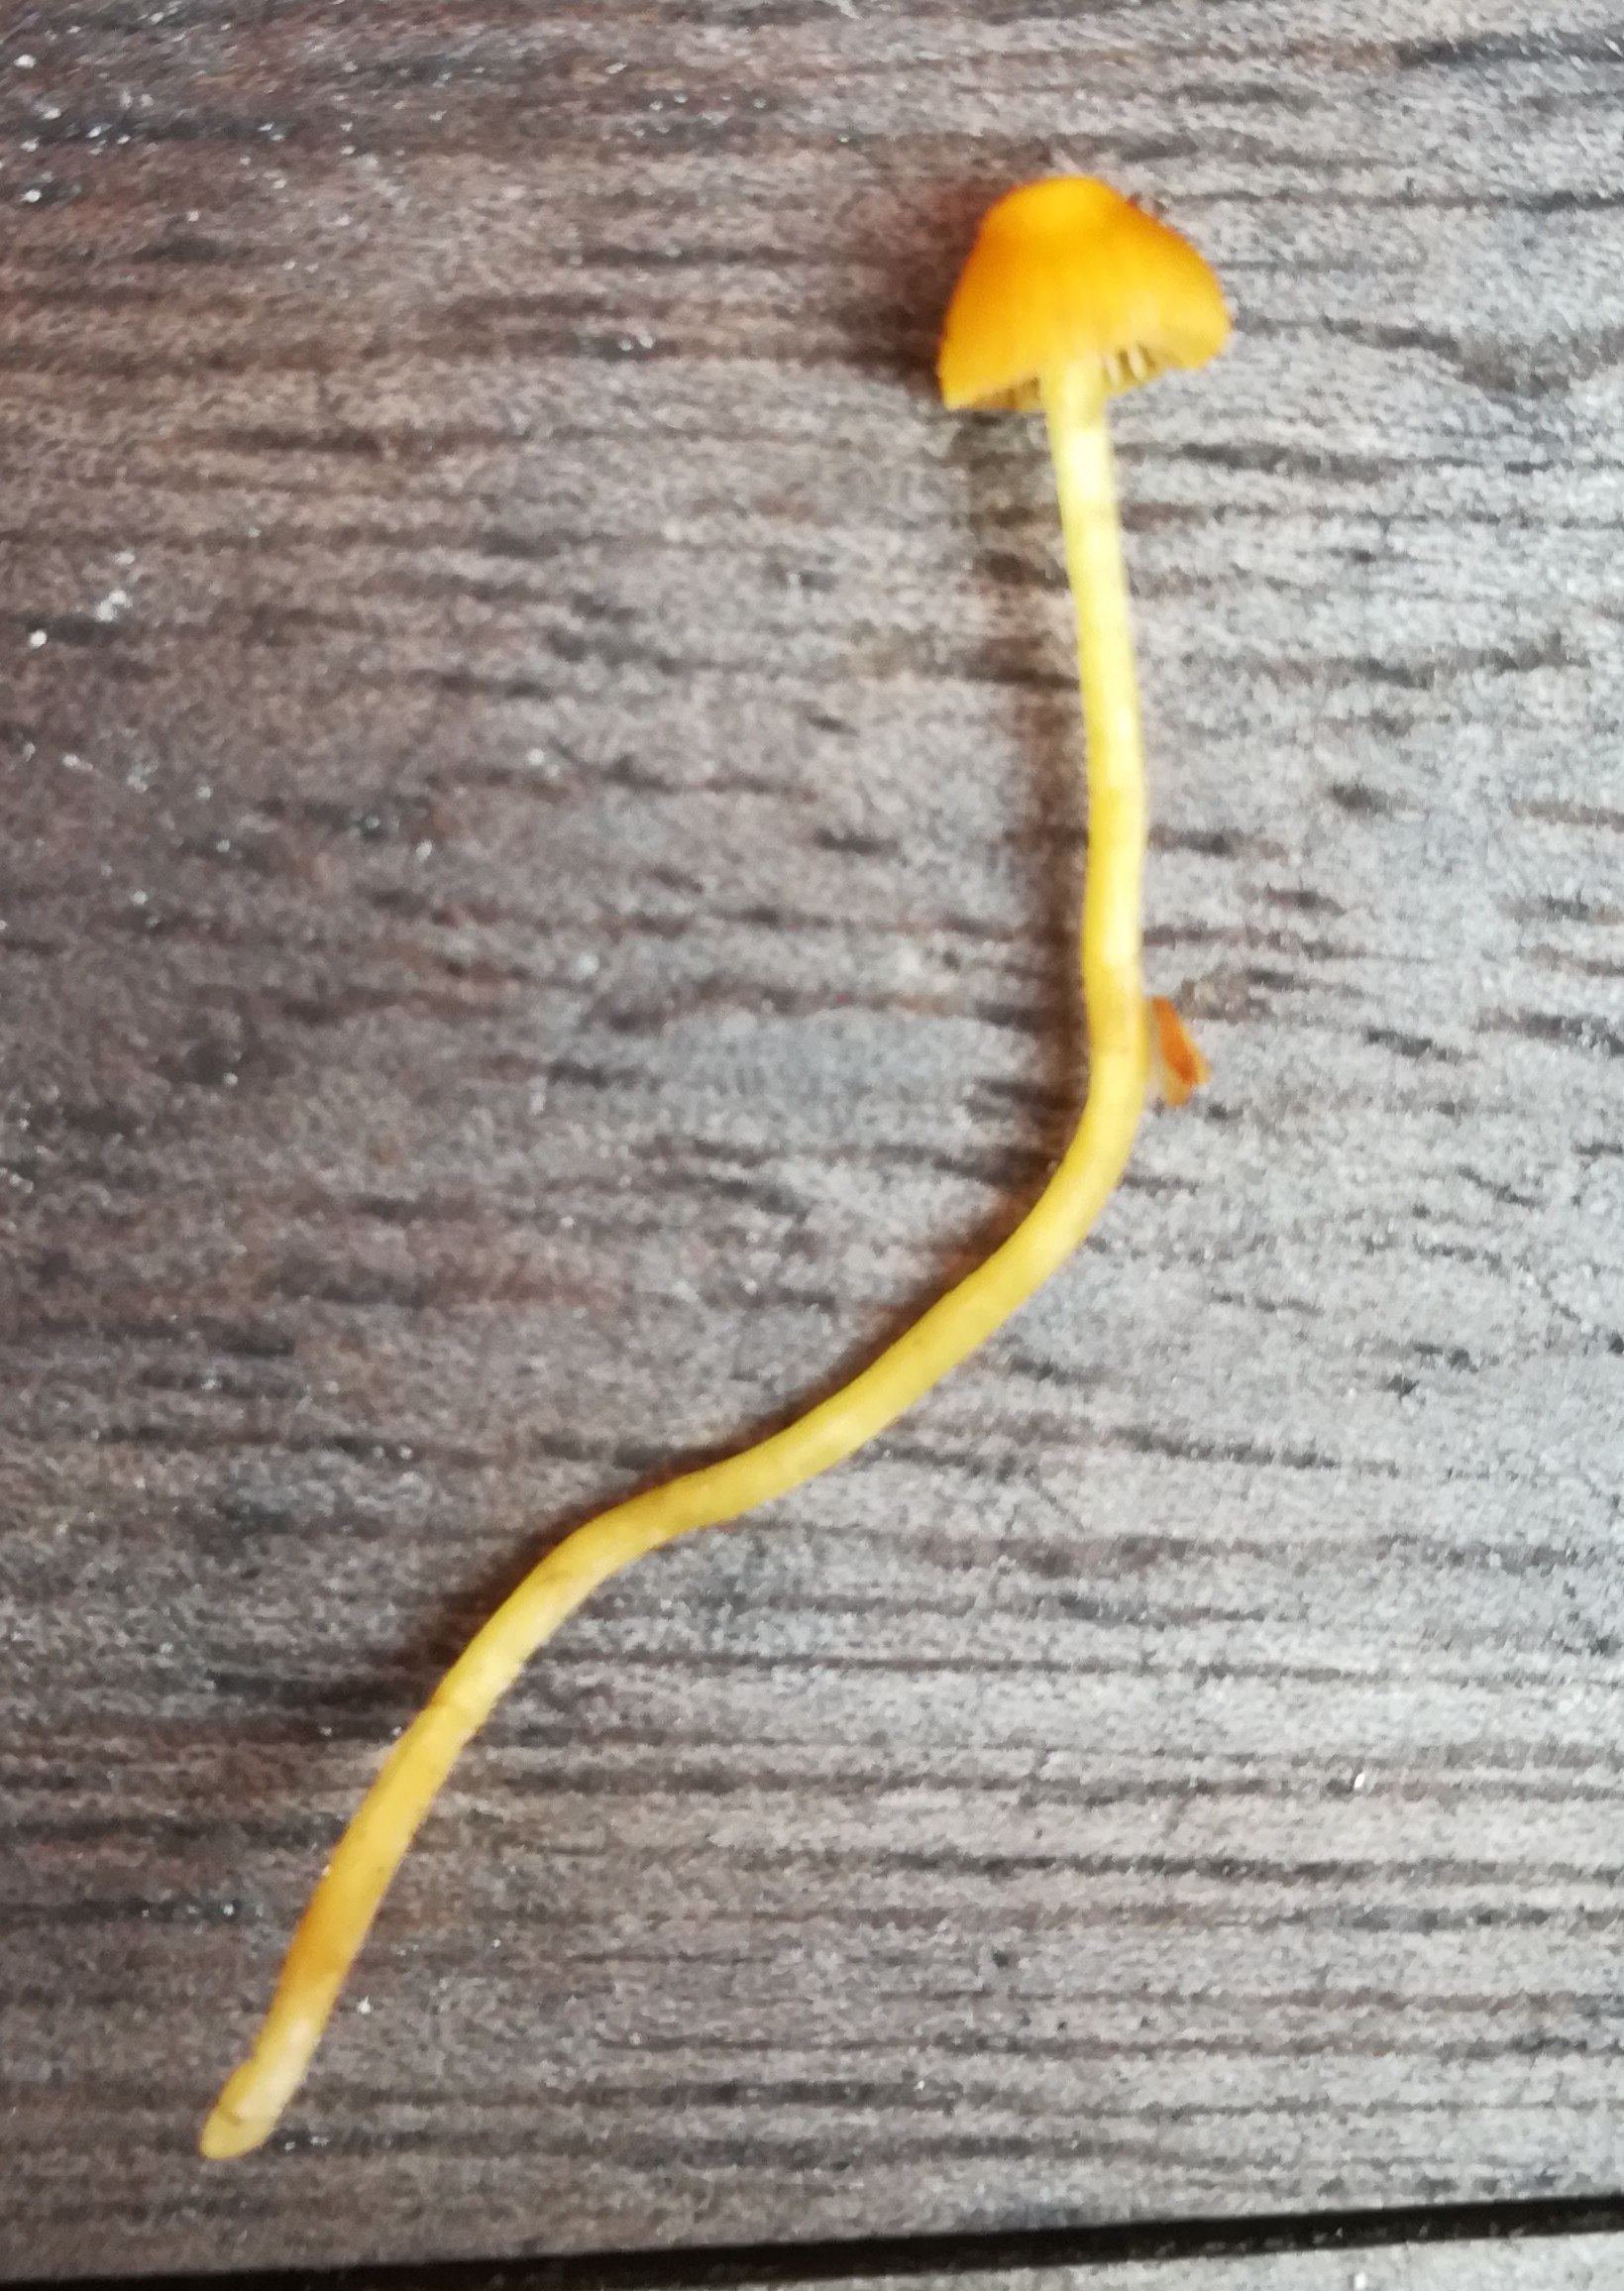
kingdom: Fungi
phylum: Basidiomycota
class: Agaricomycetes
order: Agaricales
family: Mycenaceae
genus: Mycena
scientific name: Mycena acicula
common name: orange huesvamp
